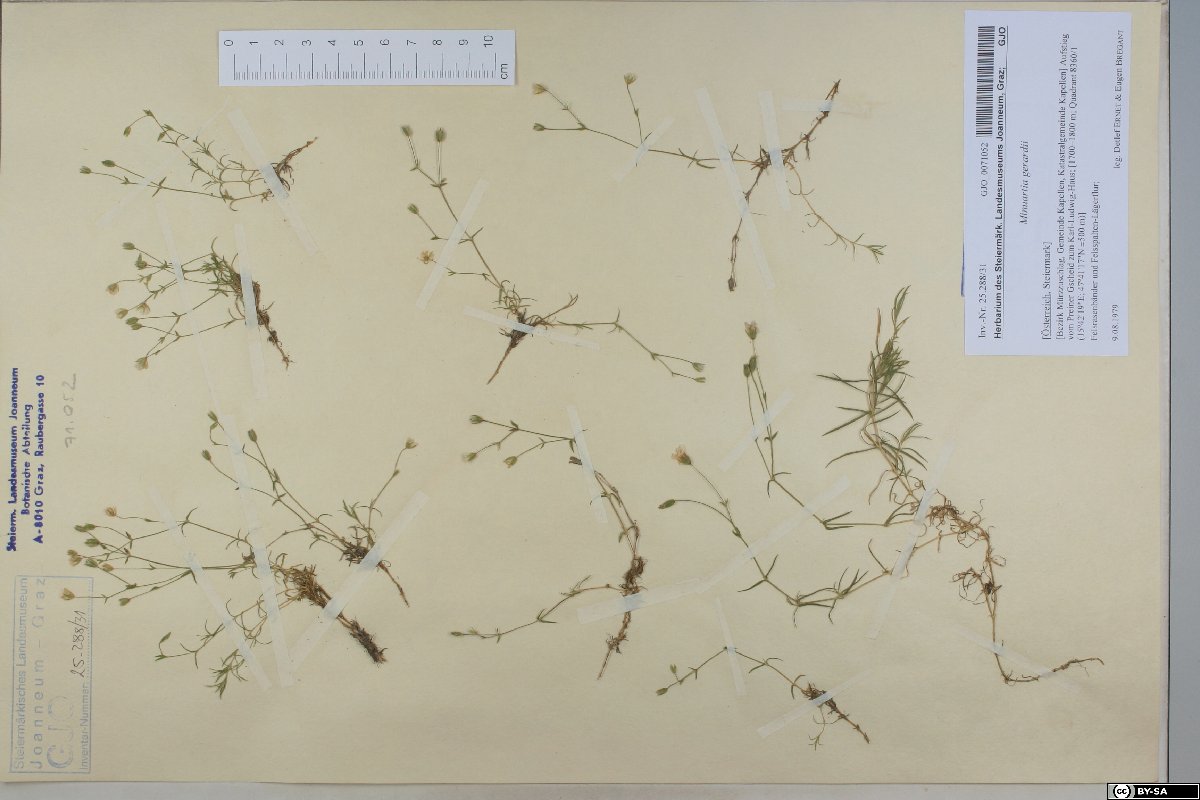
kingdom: Plantae
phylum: Tracheophyta
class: Magnoliopsida
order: Caryophyllales
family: Caryophyllaceae
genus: Sabulina
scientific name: Sabulina verna
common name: Spring sandwort
